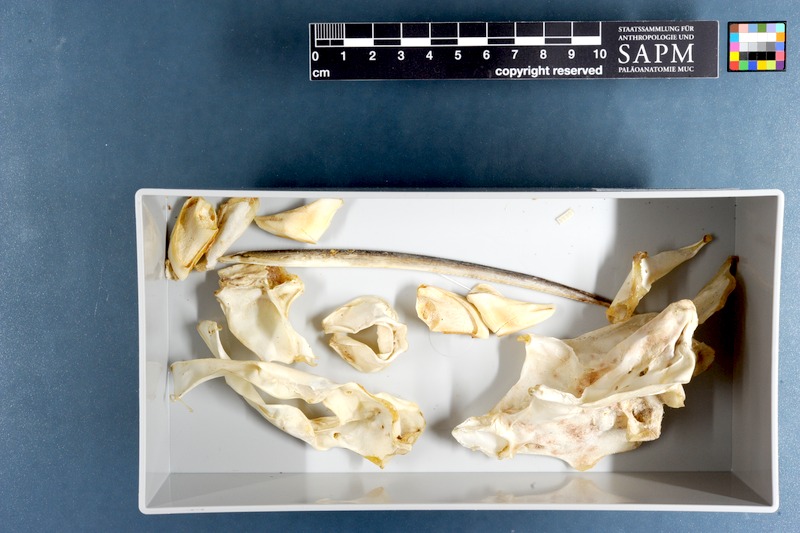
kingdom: Animalia
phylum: Chordata
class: Holocephali
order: Chimaeriformes
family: Callorhinchidae
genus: Callorhinchus
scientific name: Callorhinchus capensis
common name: Cape elephantfish
